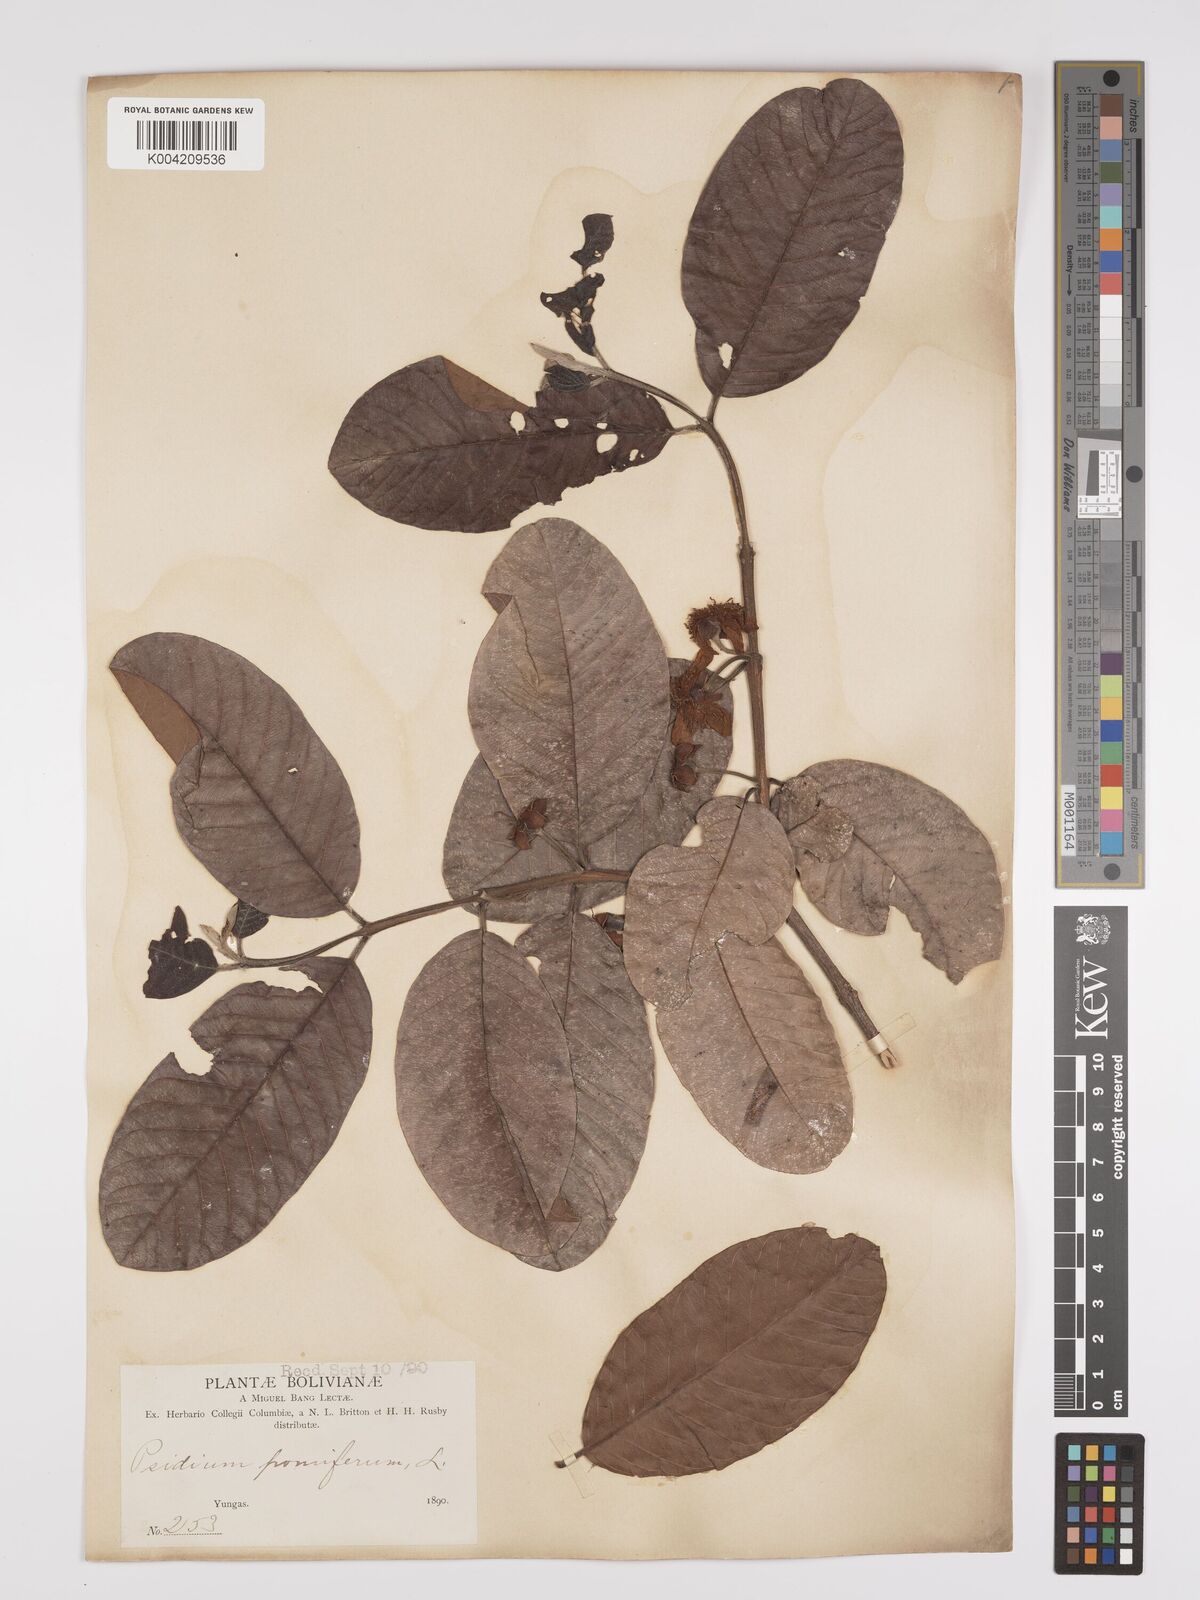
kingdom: Plantae
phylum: Tracheophyta
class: Magnoliopsida
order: Myrtales
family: Myrtaceae
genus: Psidium
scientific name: Psidium guajava
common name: Guava
